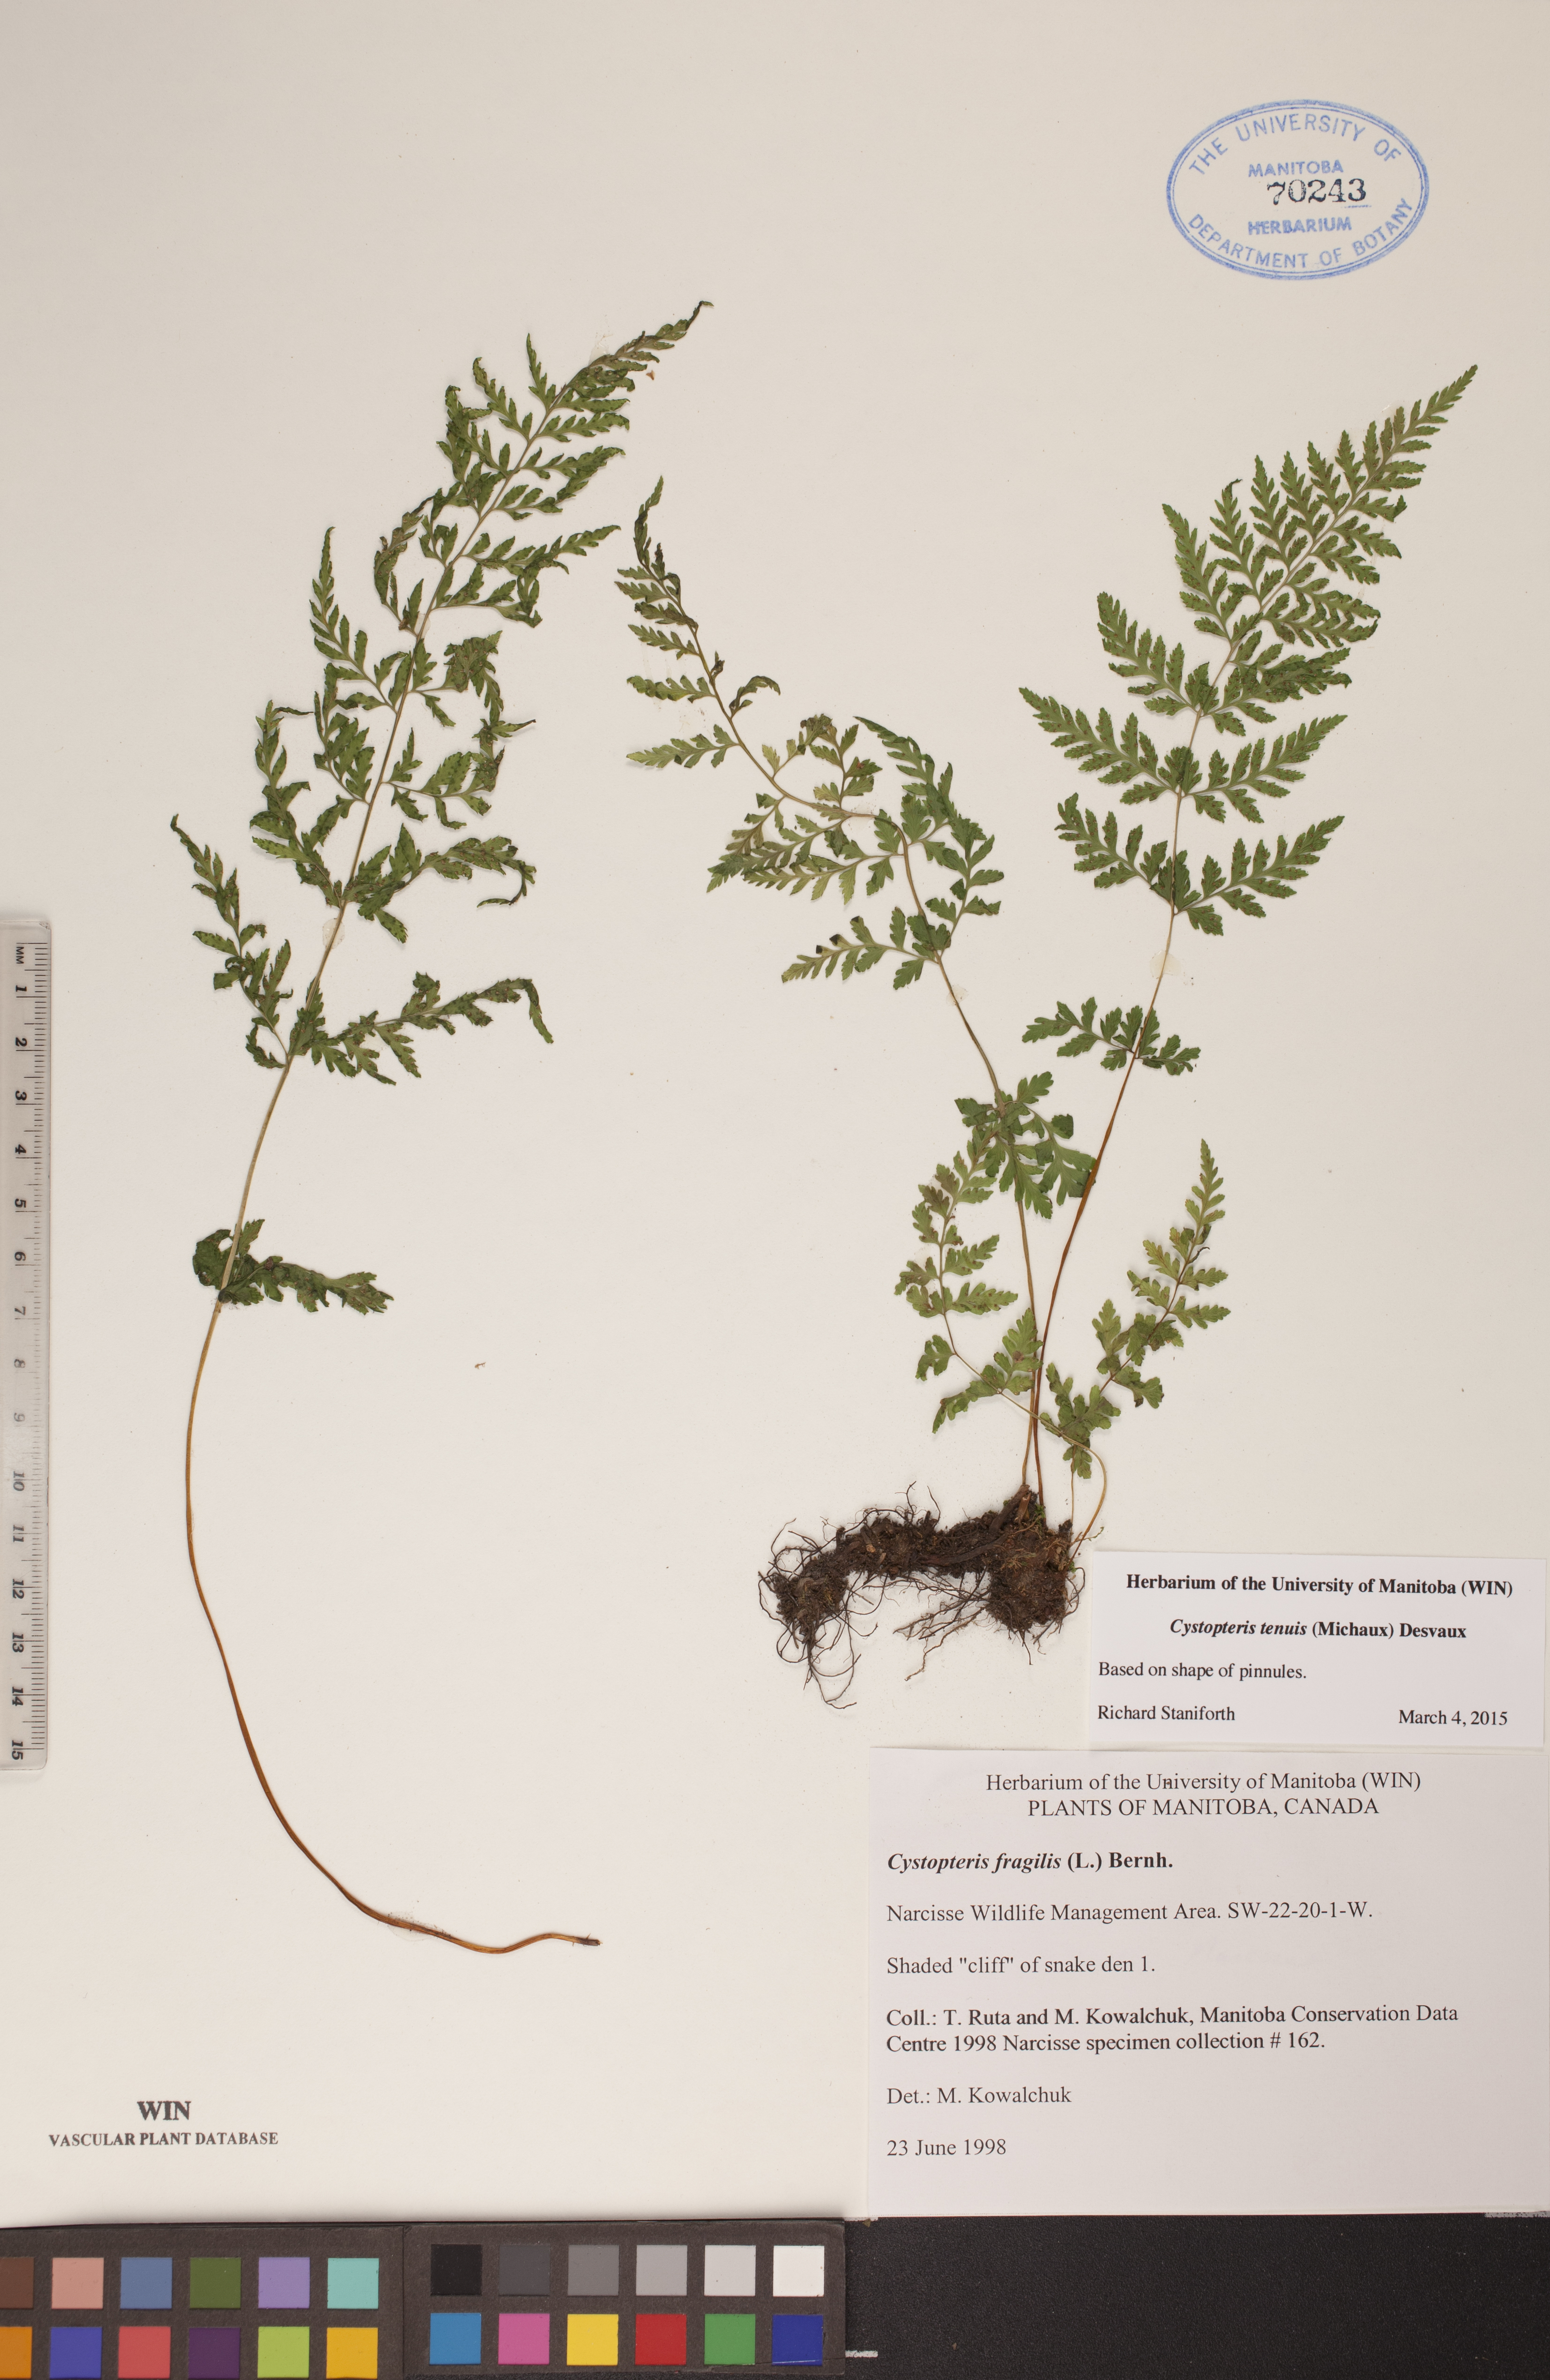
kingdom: Plantae
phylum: Tracheophyta
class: Polypodiopsida
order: Polypodiales
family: Cystopteridaceae
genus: Cystopteris
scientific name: Cystopteris tenuis
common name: Mackay's brittle fern
